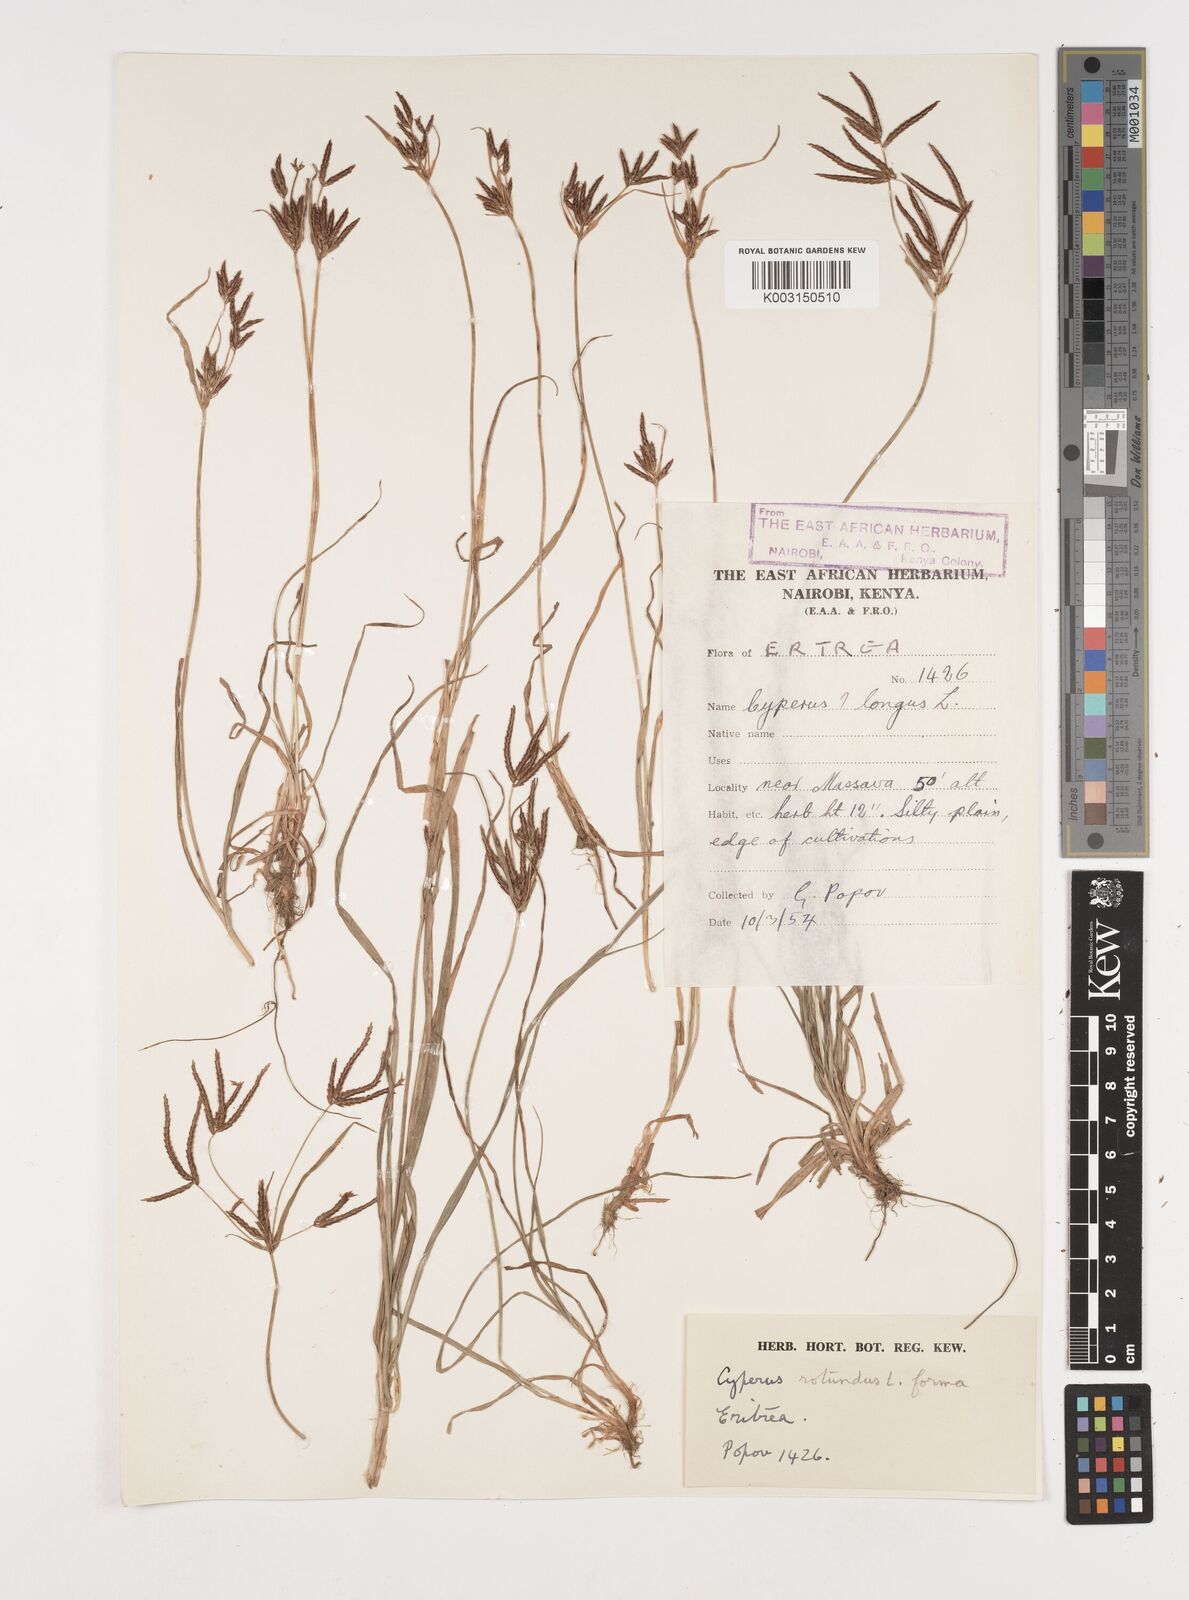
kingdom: Plantae
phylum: Tracheophyta
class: Liliopsida
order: Poales
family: Cyperaceae
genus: Cyperus
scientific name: Cyperus rotundus
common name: Nutgrass
